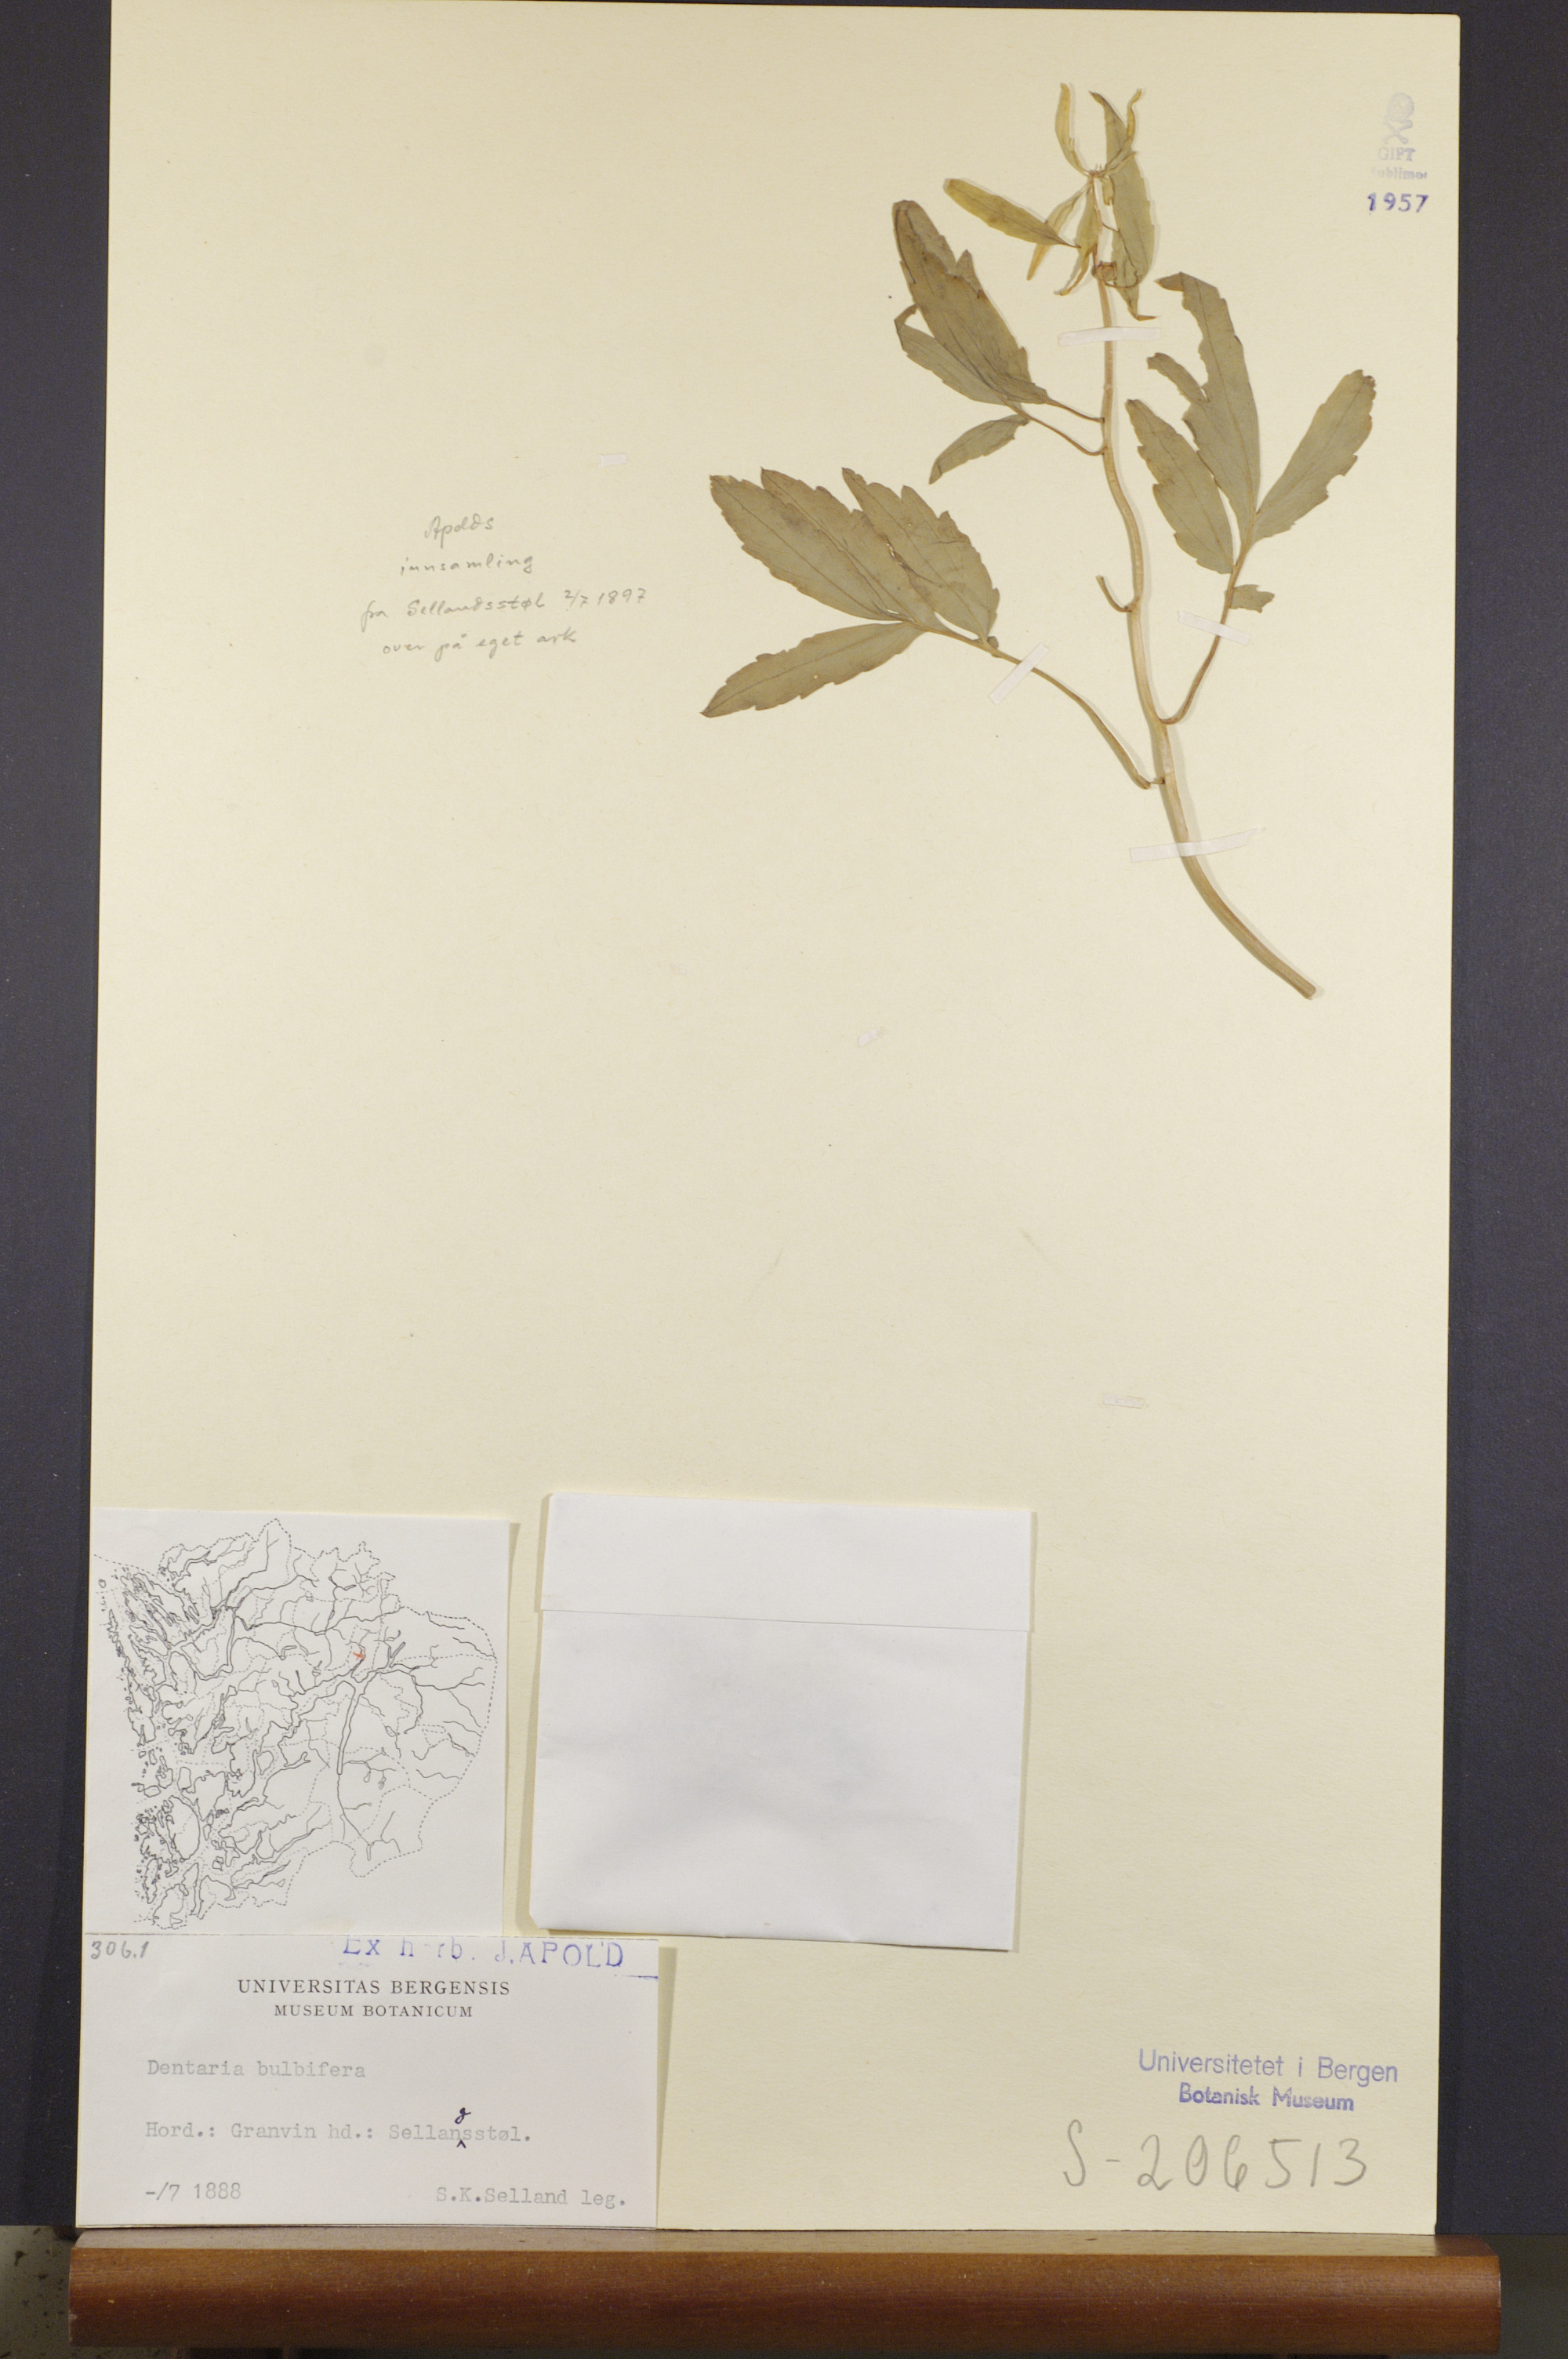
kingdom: Plantae
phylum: Tracheophyta
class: Magnoliopsida
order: Brassicales
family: Brassicaceae
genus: Cardamine
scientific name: Cardamine bulbifera
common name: Coralroot bittercress
